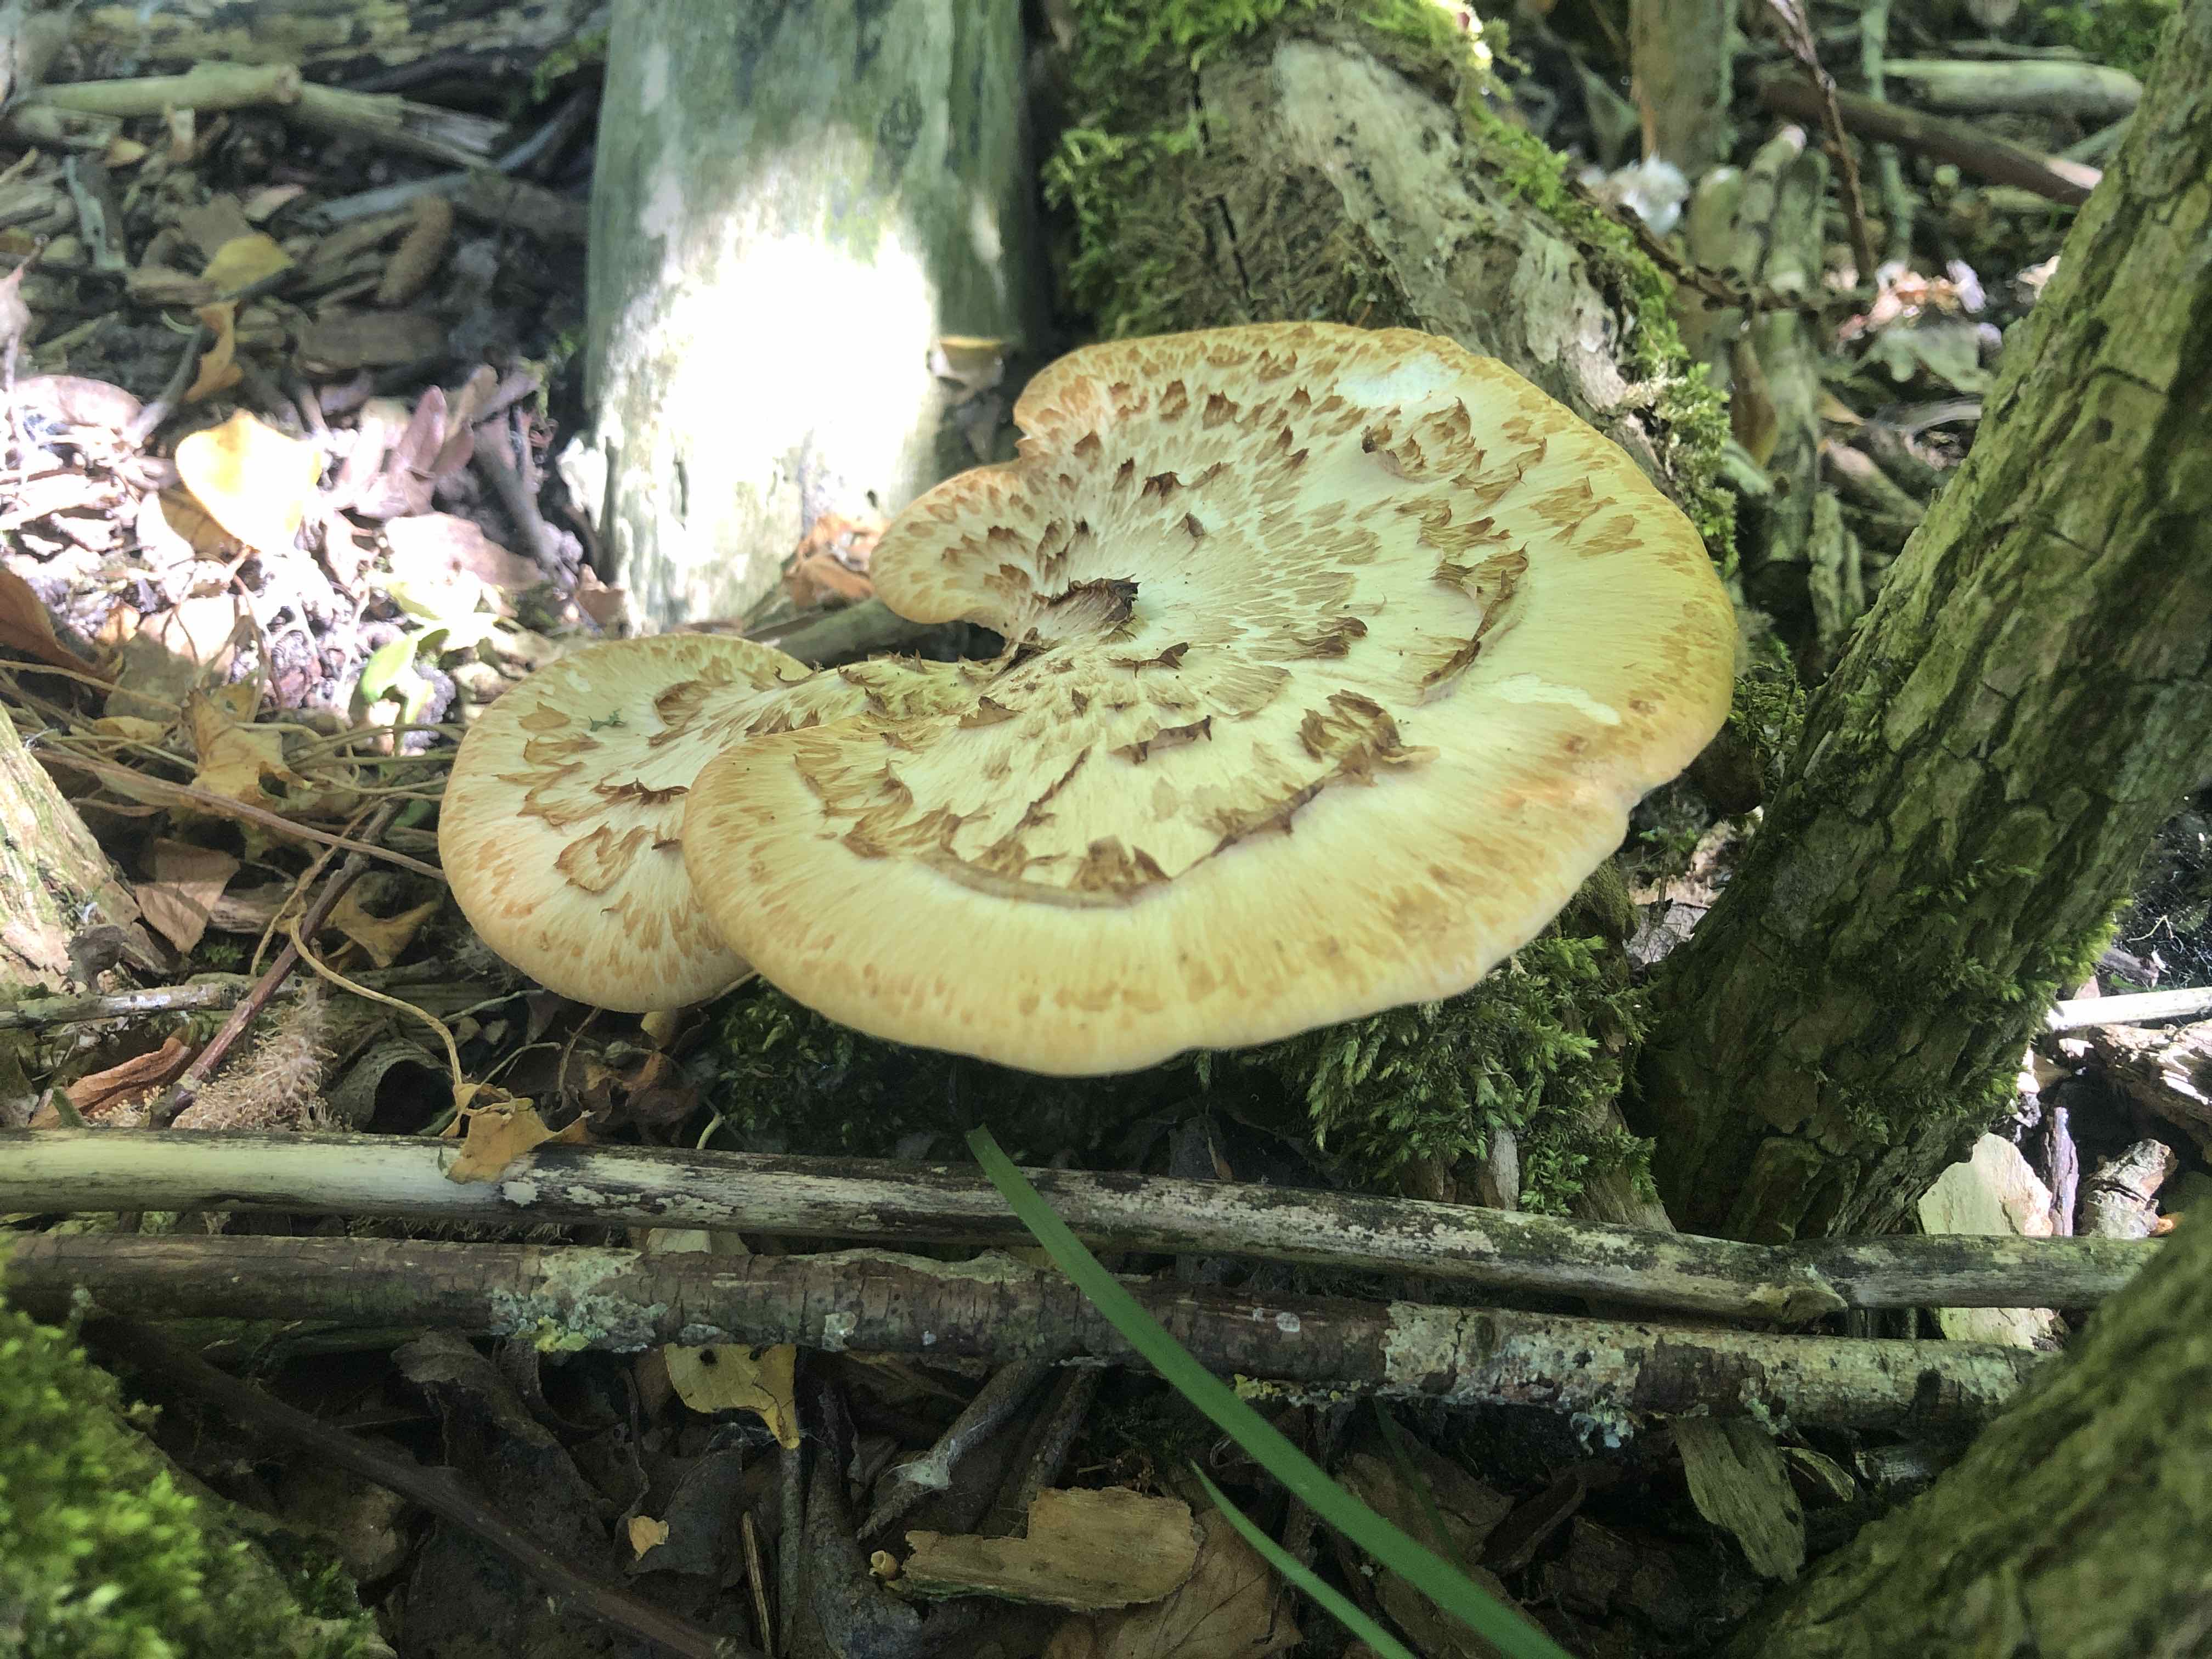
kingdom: Fungi
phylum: Basidiomycota
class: Agaricomycetes
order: Polyporales
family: Polyporaceae
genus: Cerioporus
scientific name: Cerioporus squamosus
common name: skællet stilkporesvamp
